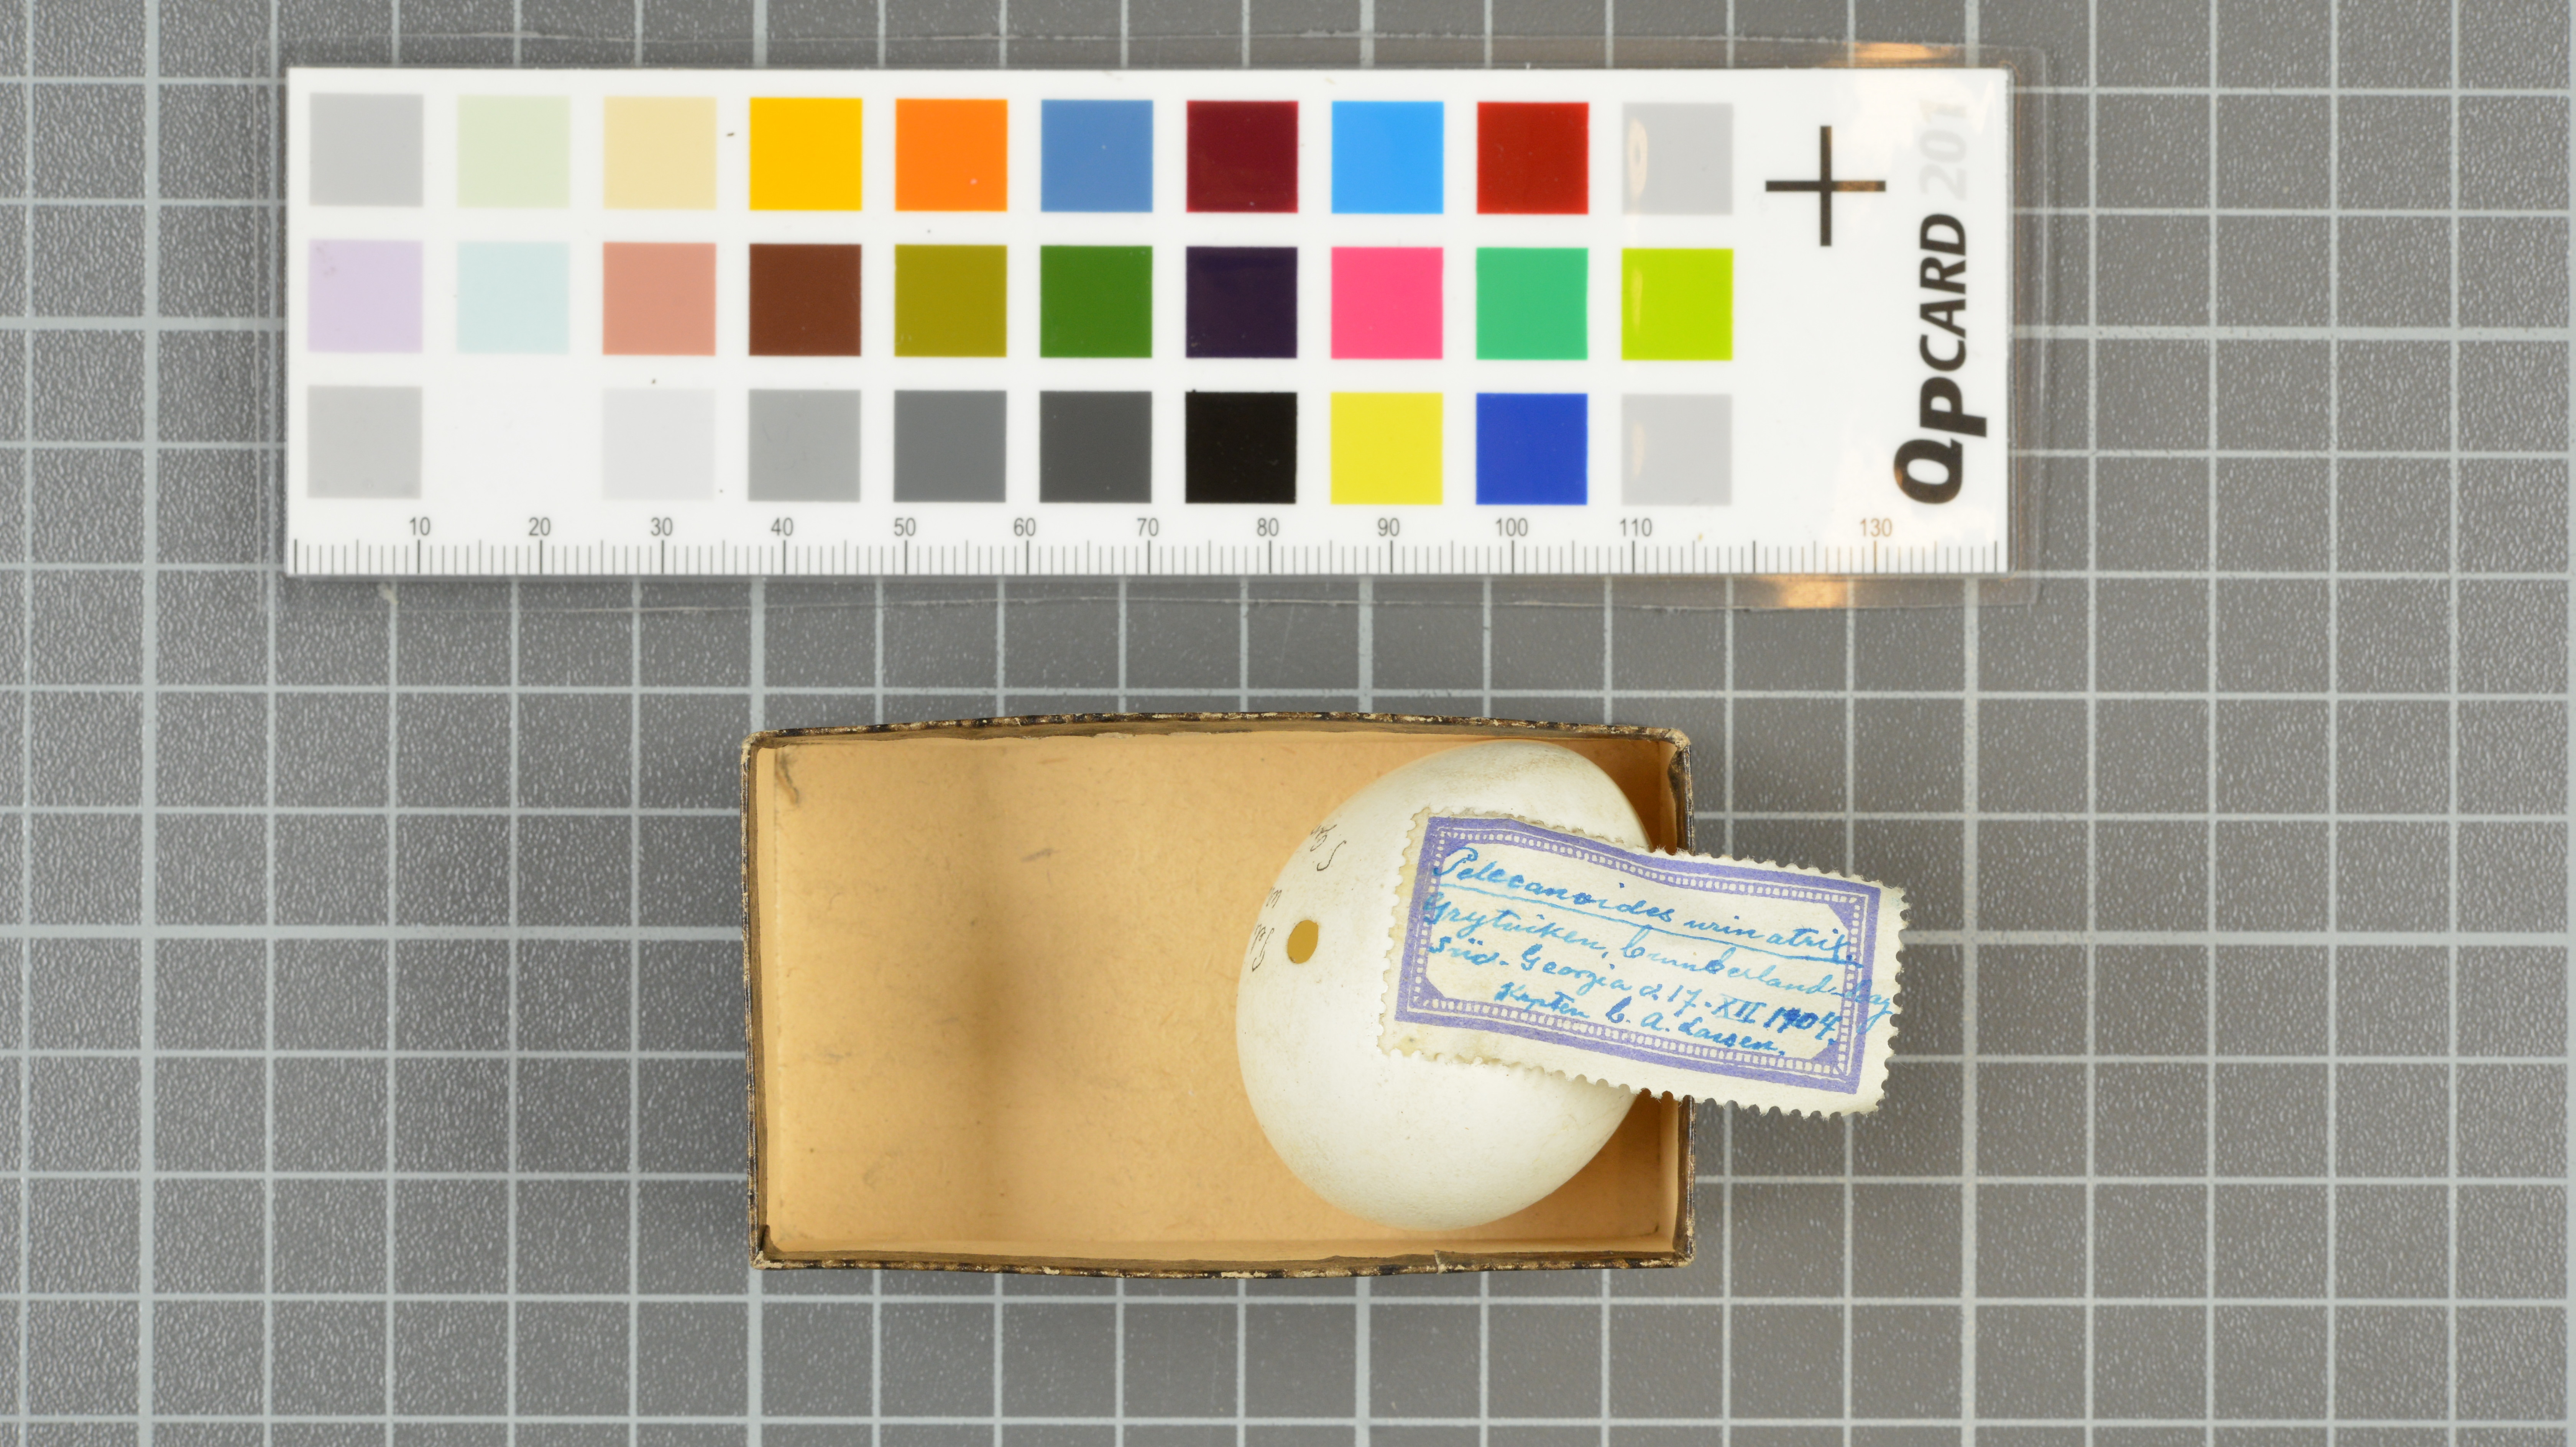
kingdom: Animalia
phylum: Chordata
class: Aves
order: Procellariiformes
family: Pelecanoididae
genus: Pelecanoides
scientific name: Pelecanoides urinatrix
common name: Common diving-petrel
